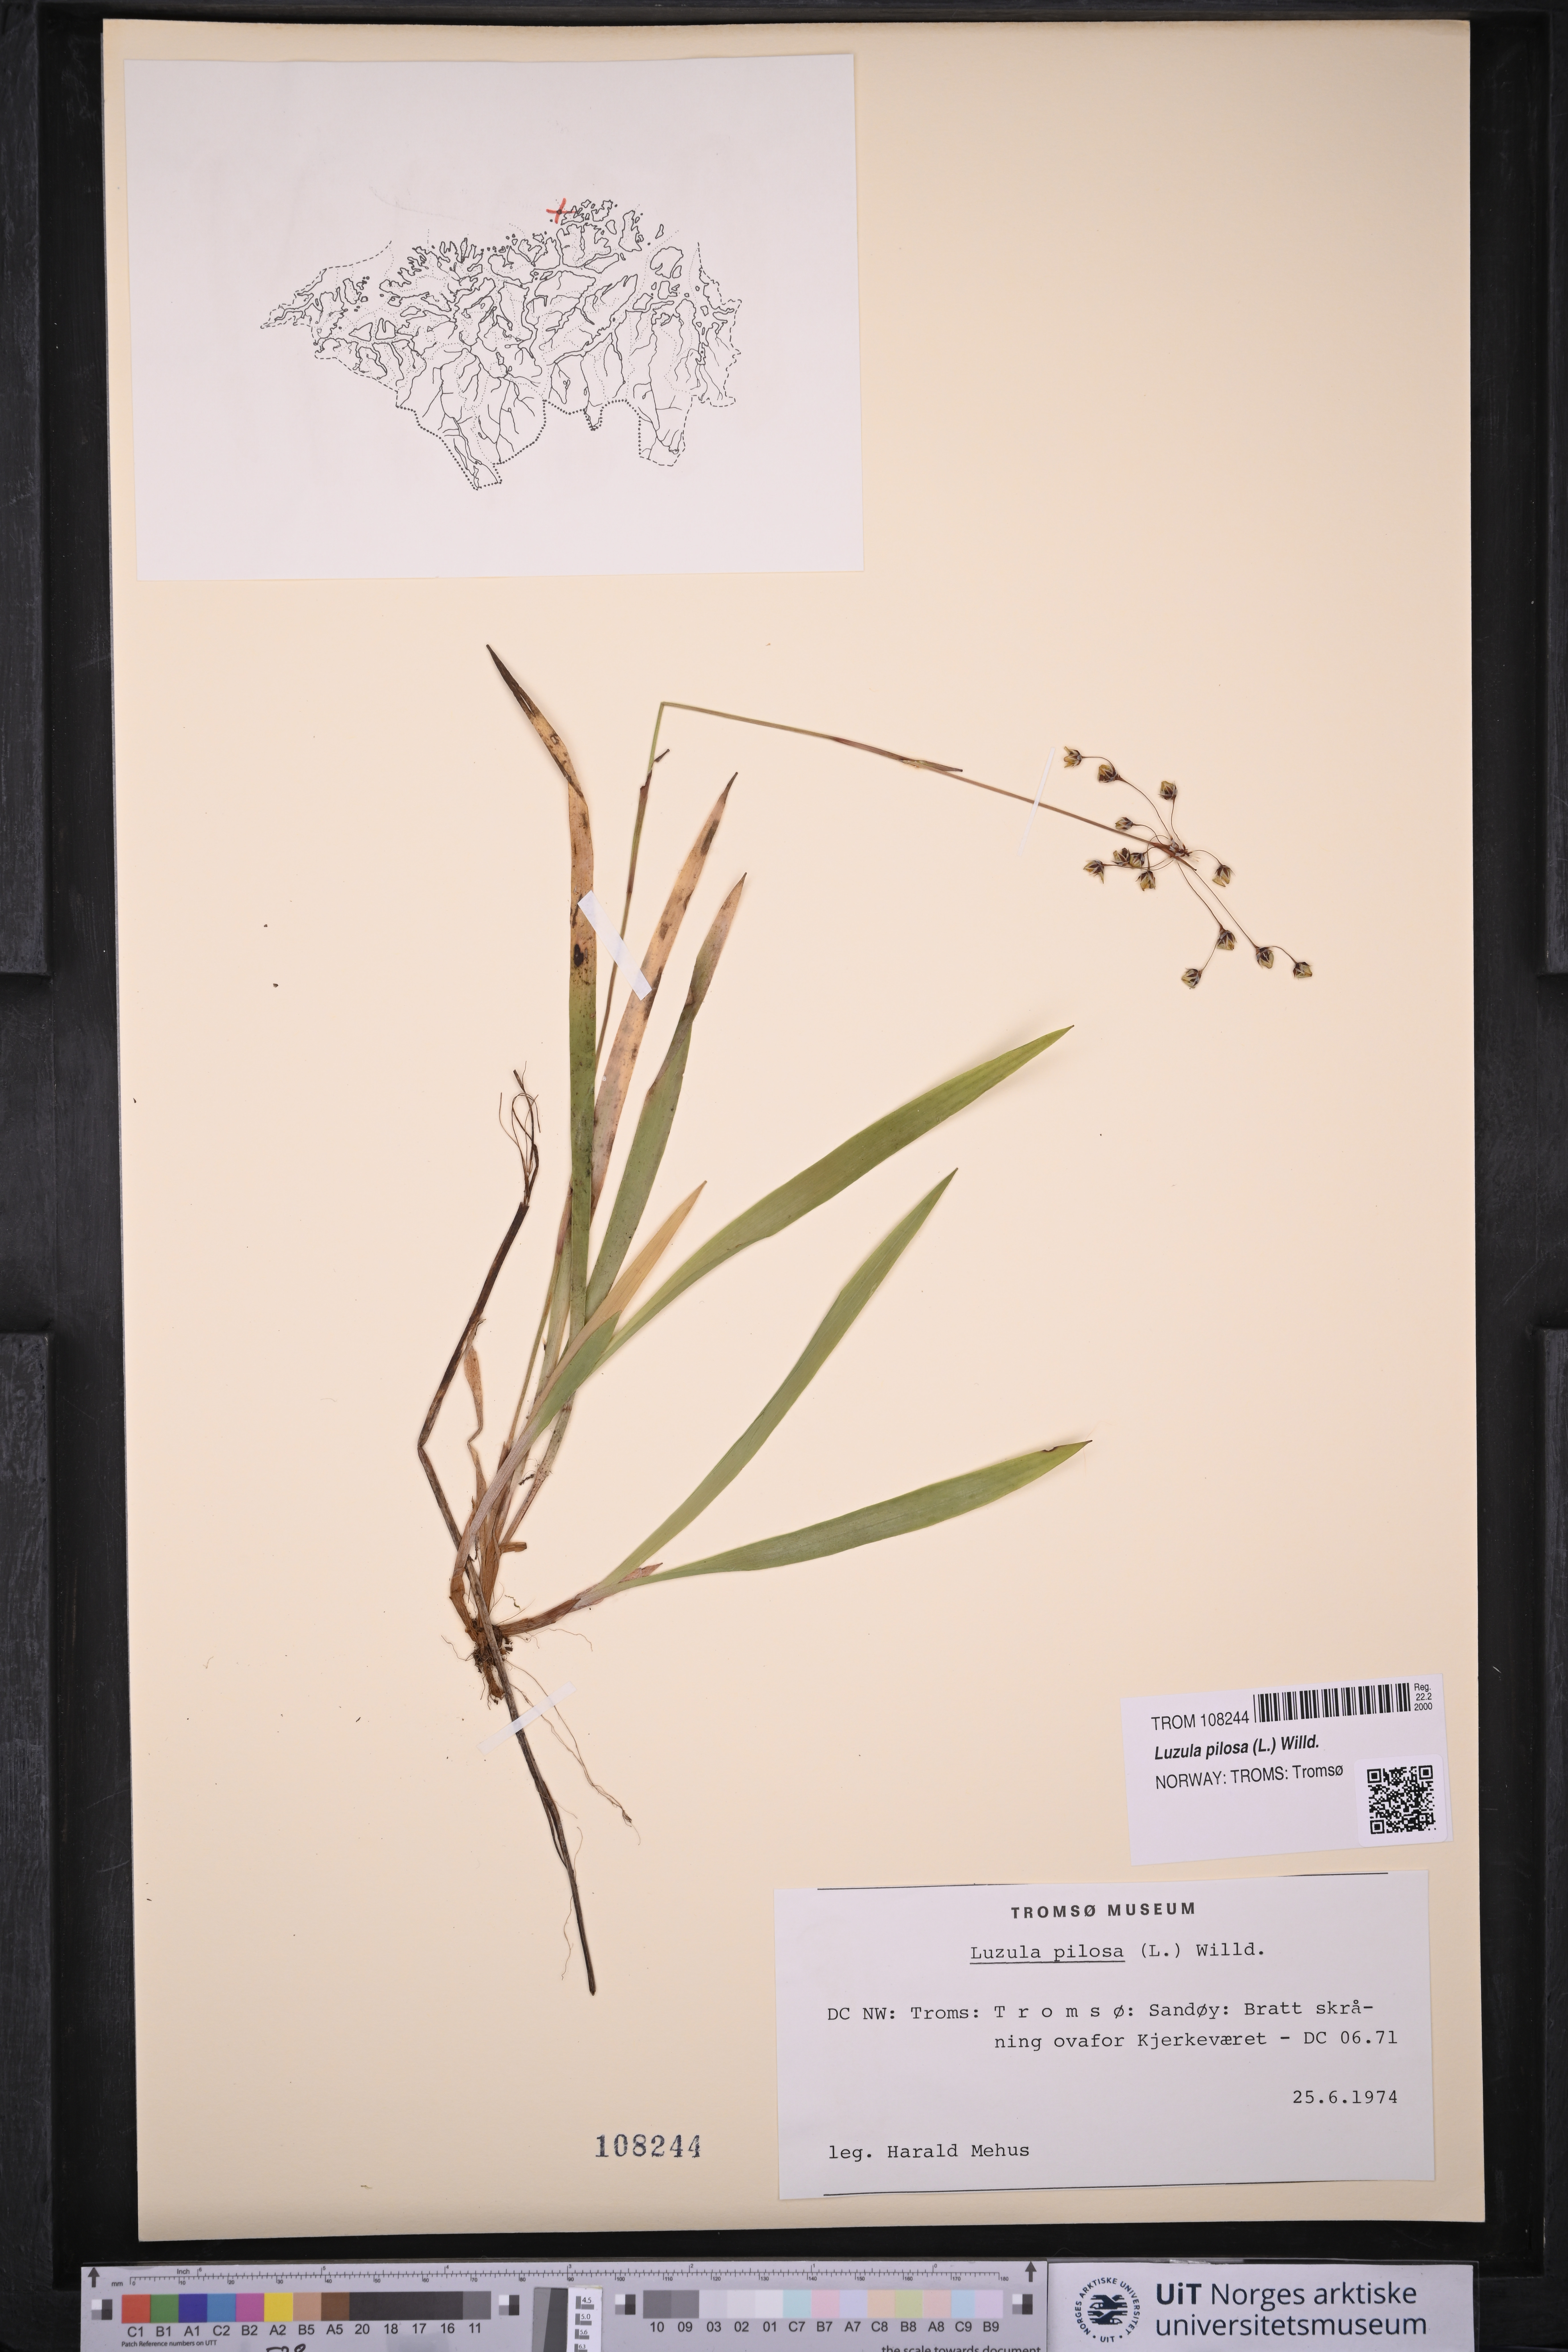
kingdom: Plantae
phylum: Tracheophyta
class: Liliopsida
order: Poales
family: Juncaceae
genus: Luzula
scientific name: Luzula pilosa
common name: Hairy wood-rush
